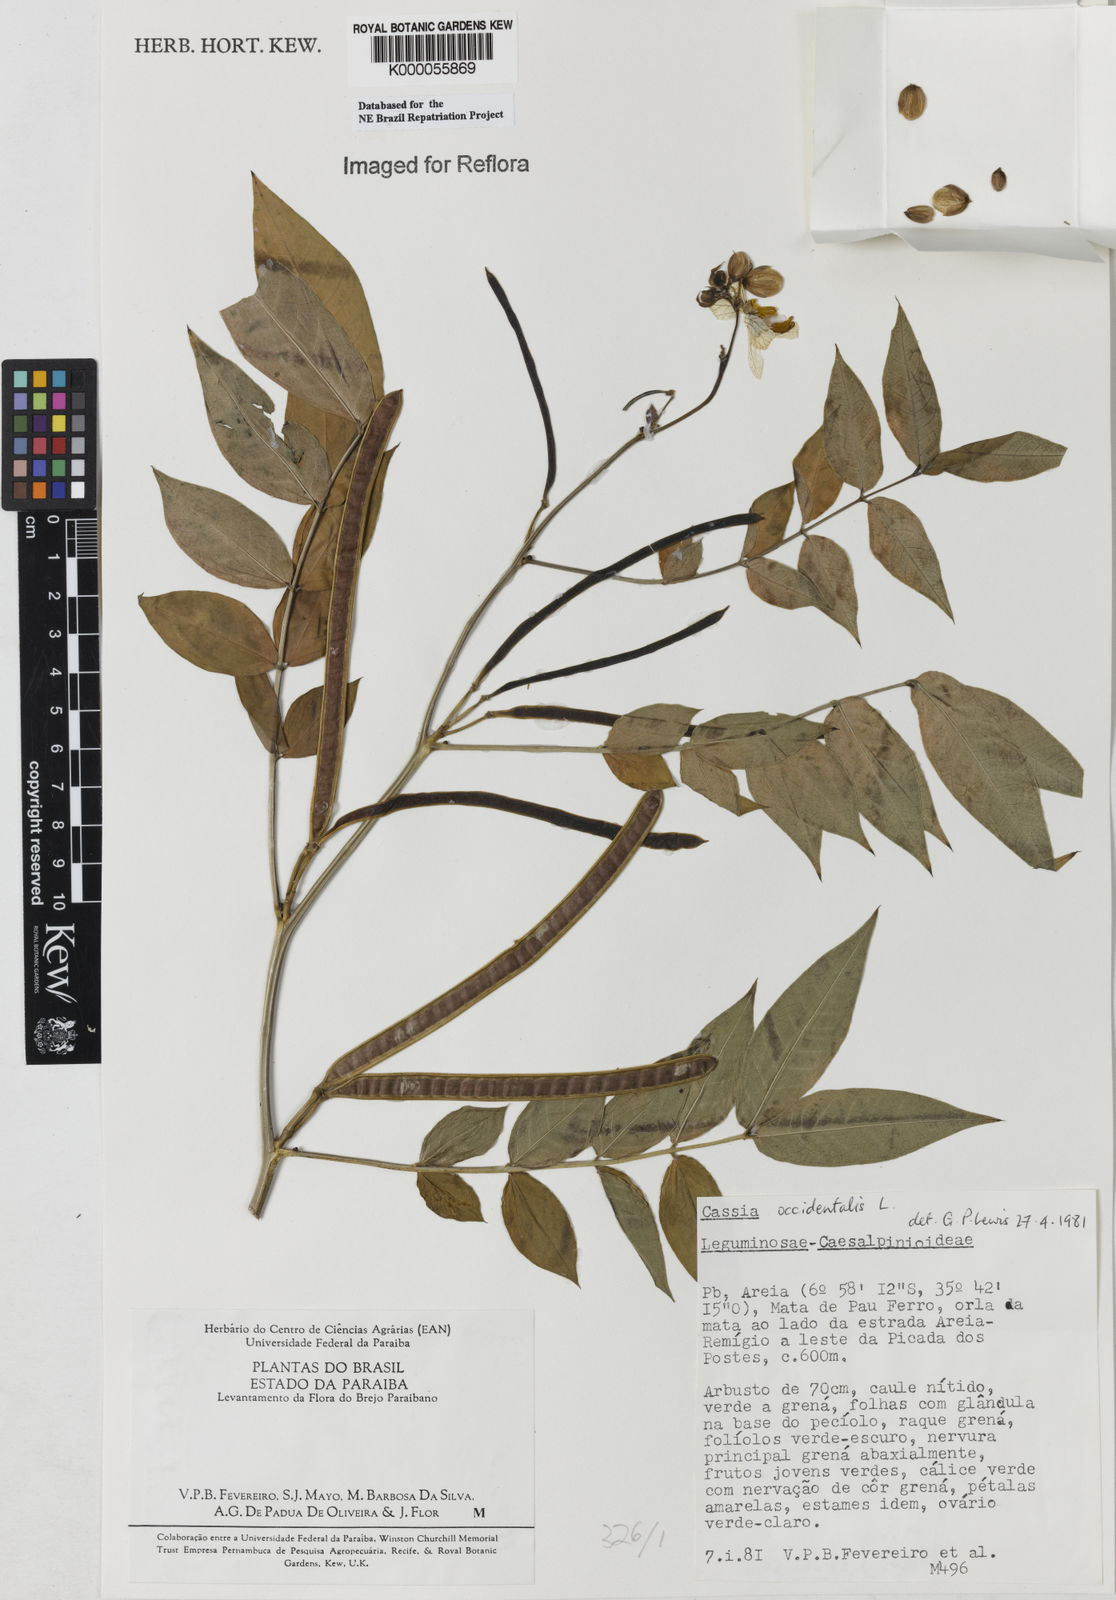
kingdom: Plantae
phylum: Tracheophyta
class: Magnoliopsida
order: Fabales
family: Fabaceae
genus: Senna
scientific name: Senna occidentalis
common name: Septicweed
